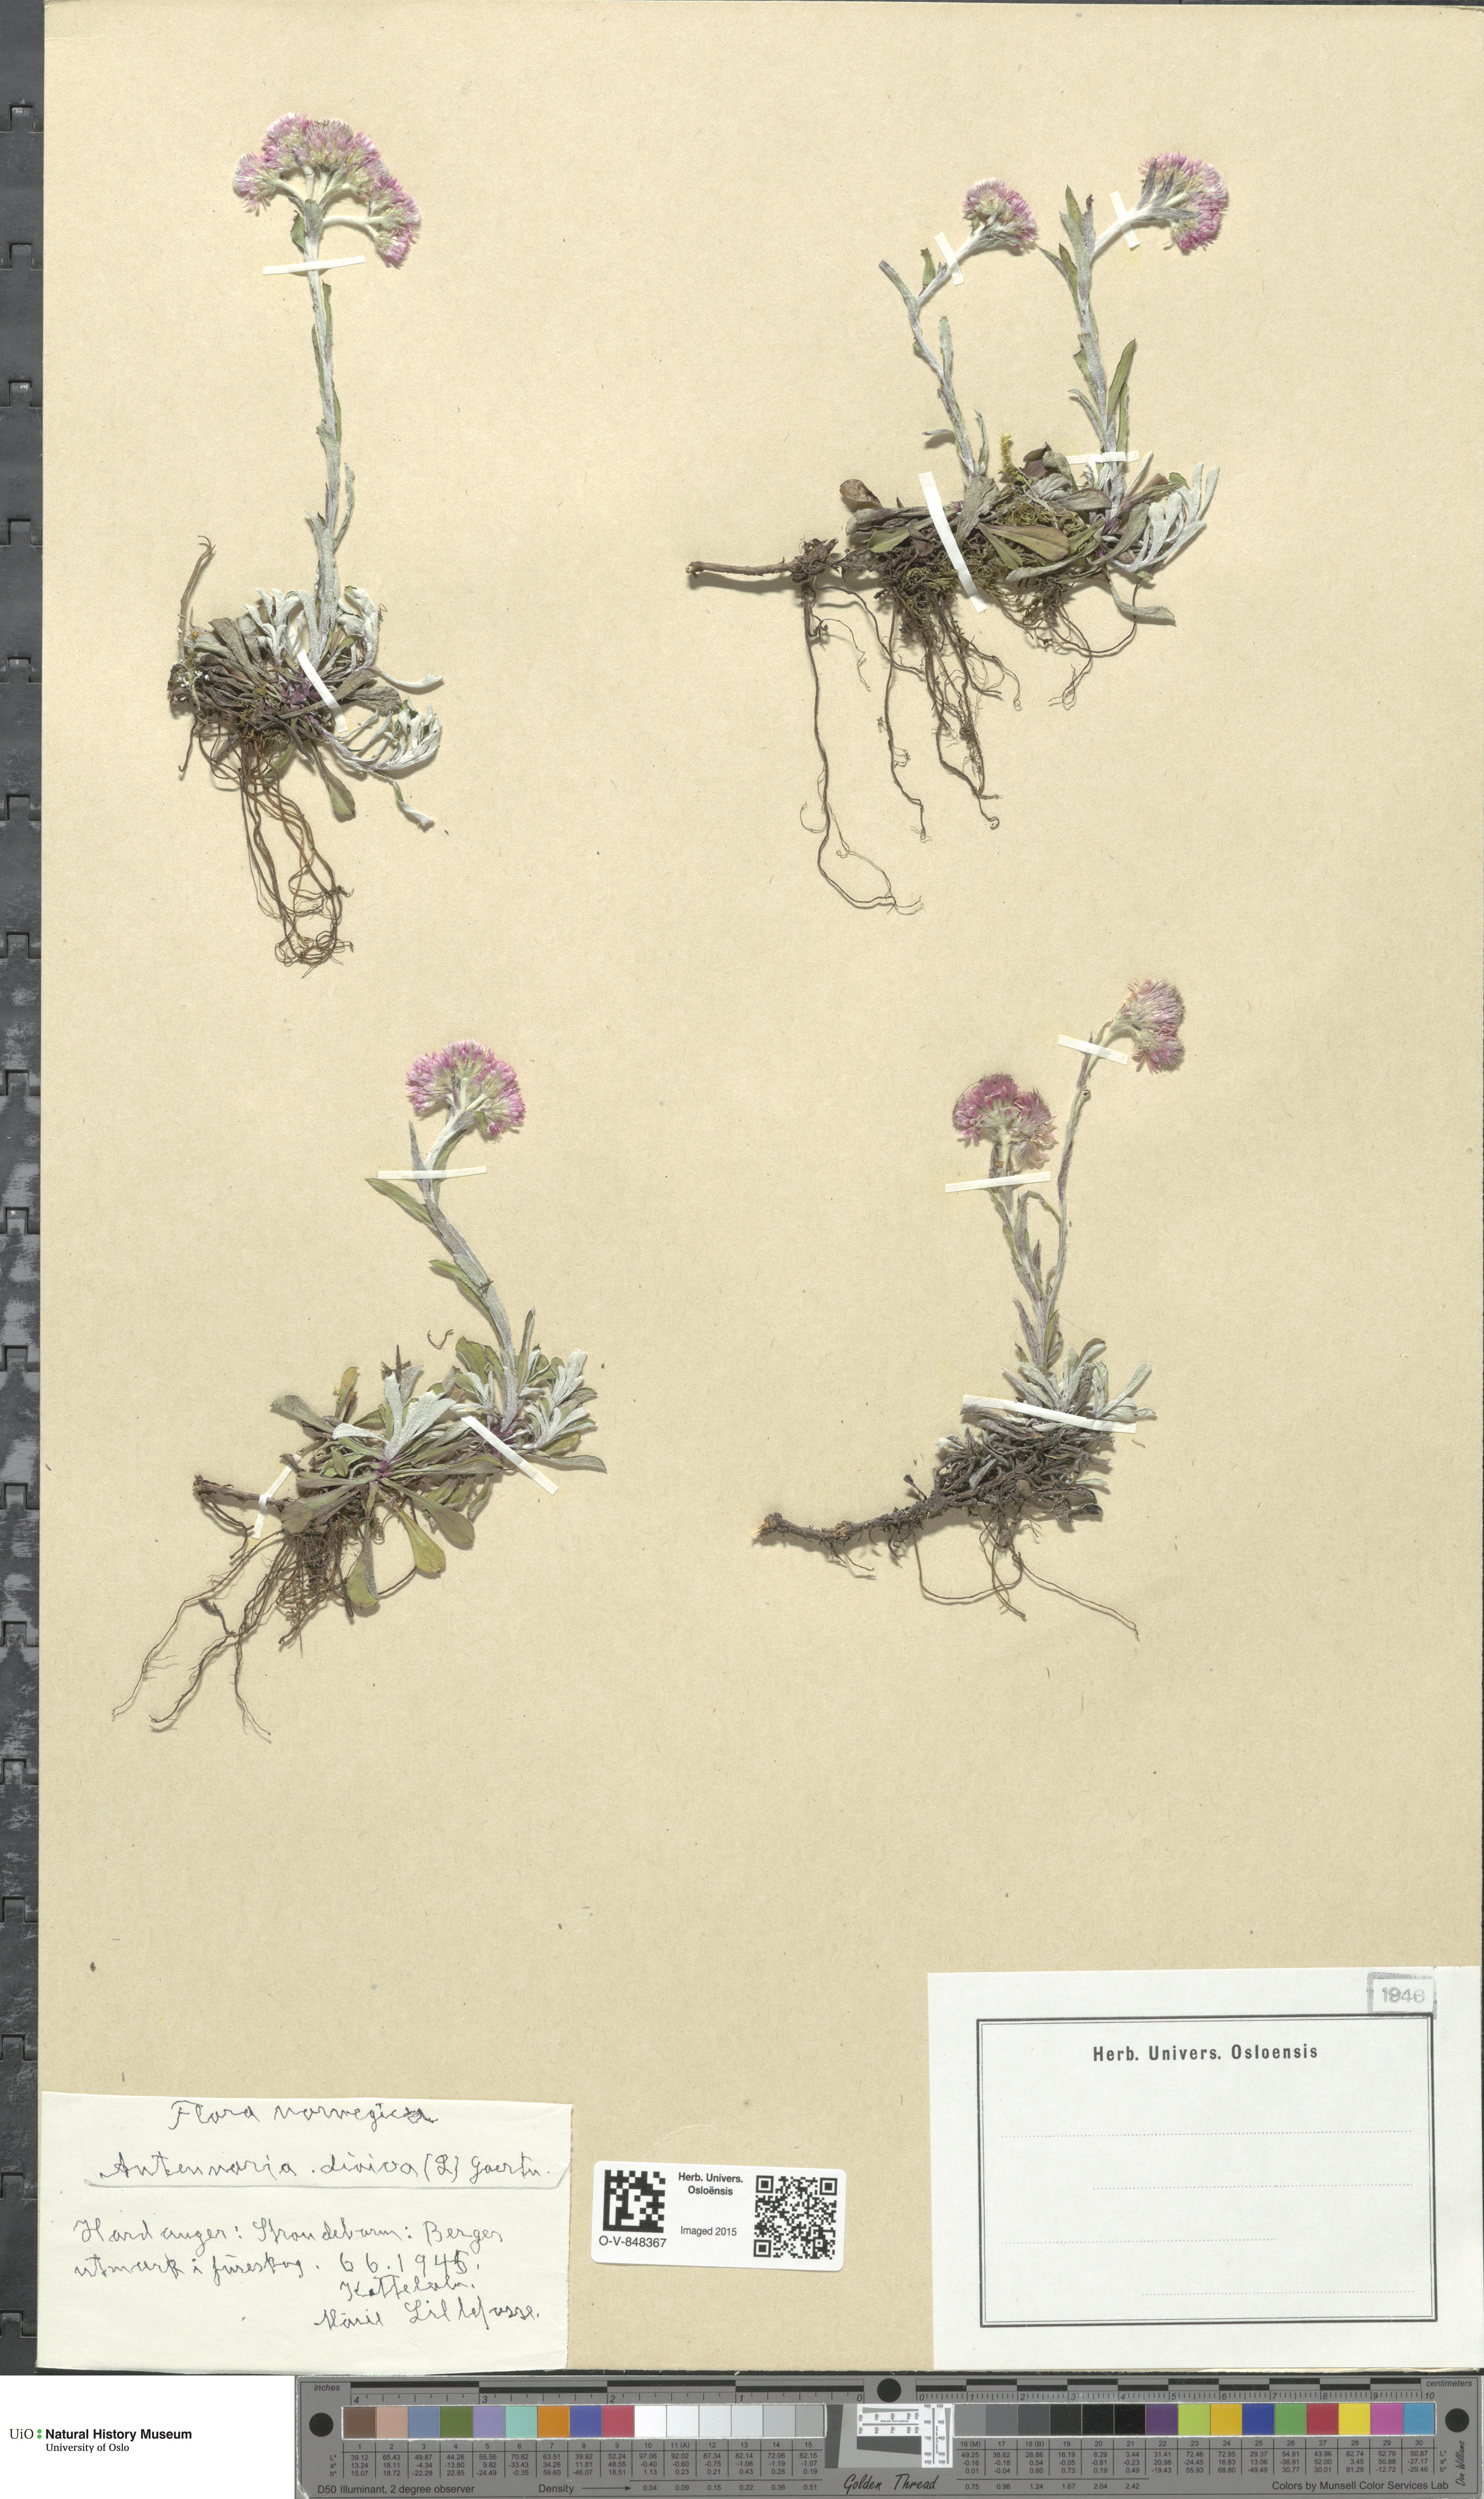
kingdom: Plantae
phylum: Tracheophyta
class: Magnoliopsida
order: Asterales
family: Asteraceae
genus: Antennaria
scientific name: Antennaria dioica
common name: Mountain everlasting
